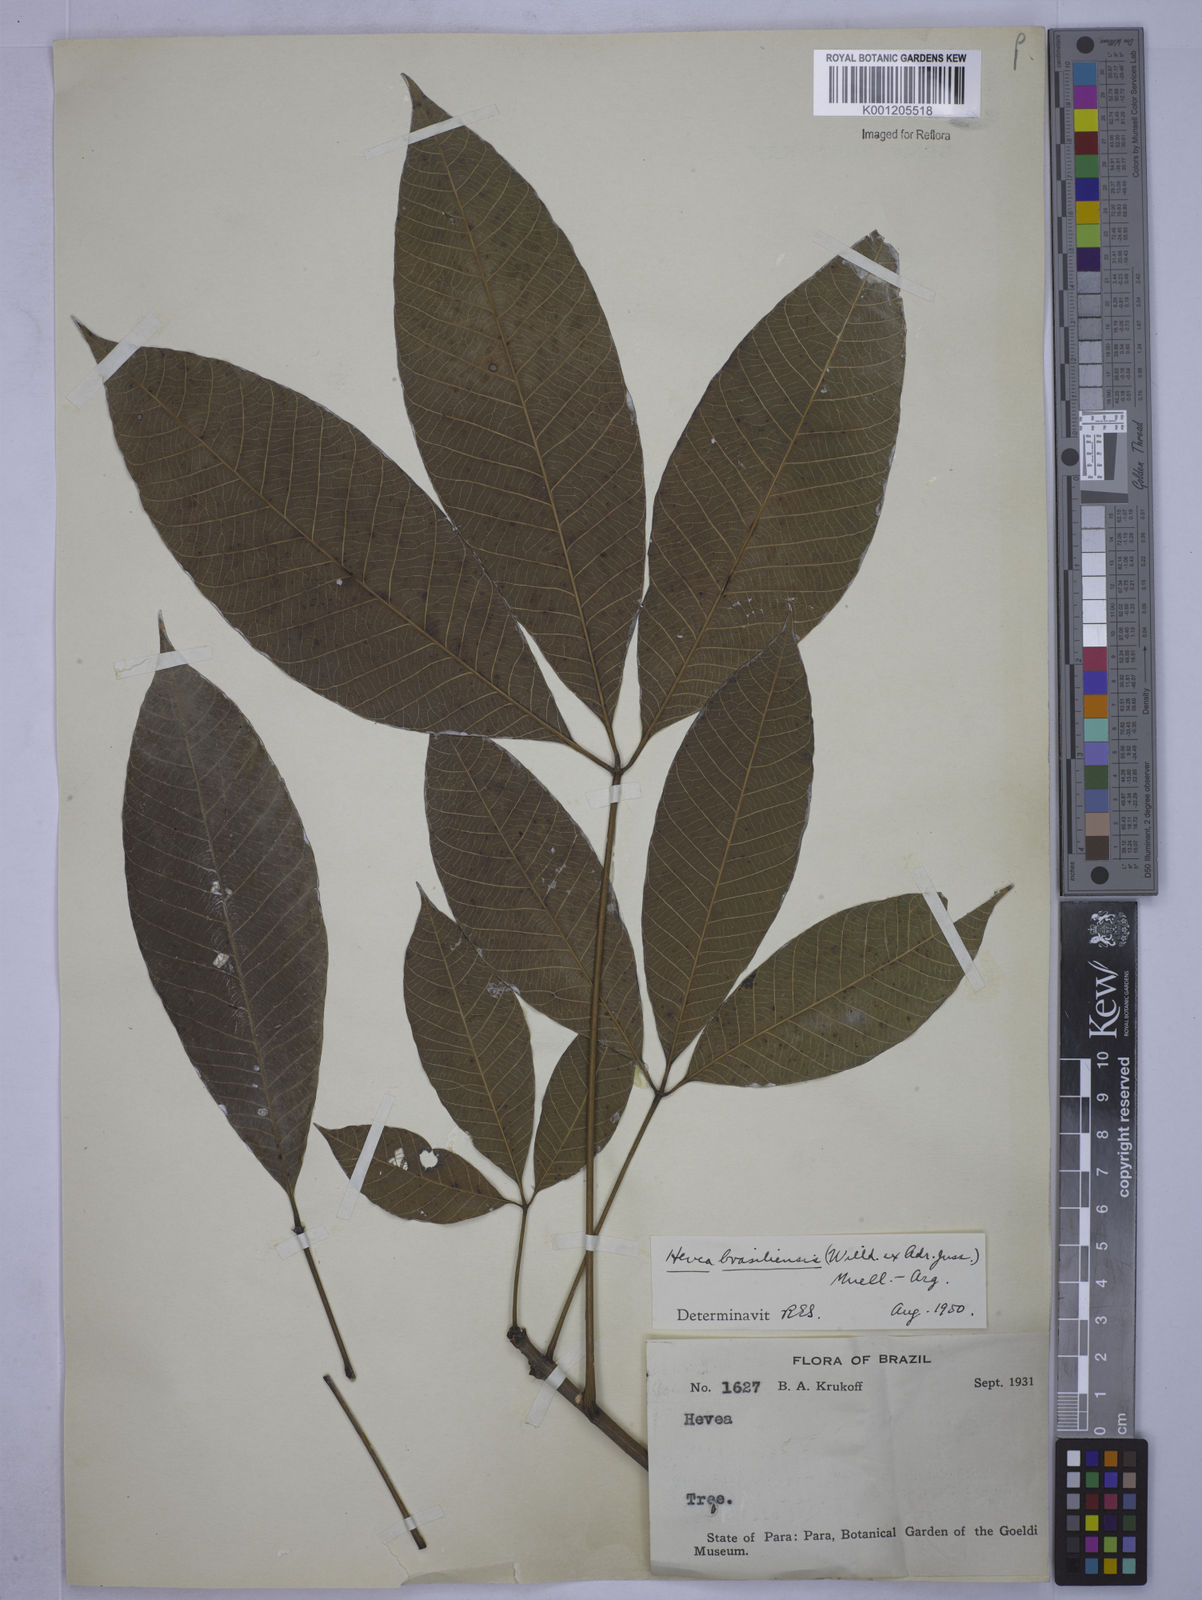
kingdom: Plantae
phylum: Tracheophyta
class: Magnoliopsida
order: Malpighiales
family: Euphorbiaceae
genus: Hevea
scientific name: Hevea
